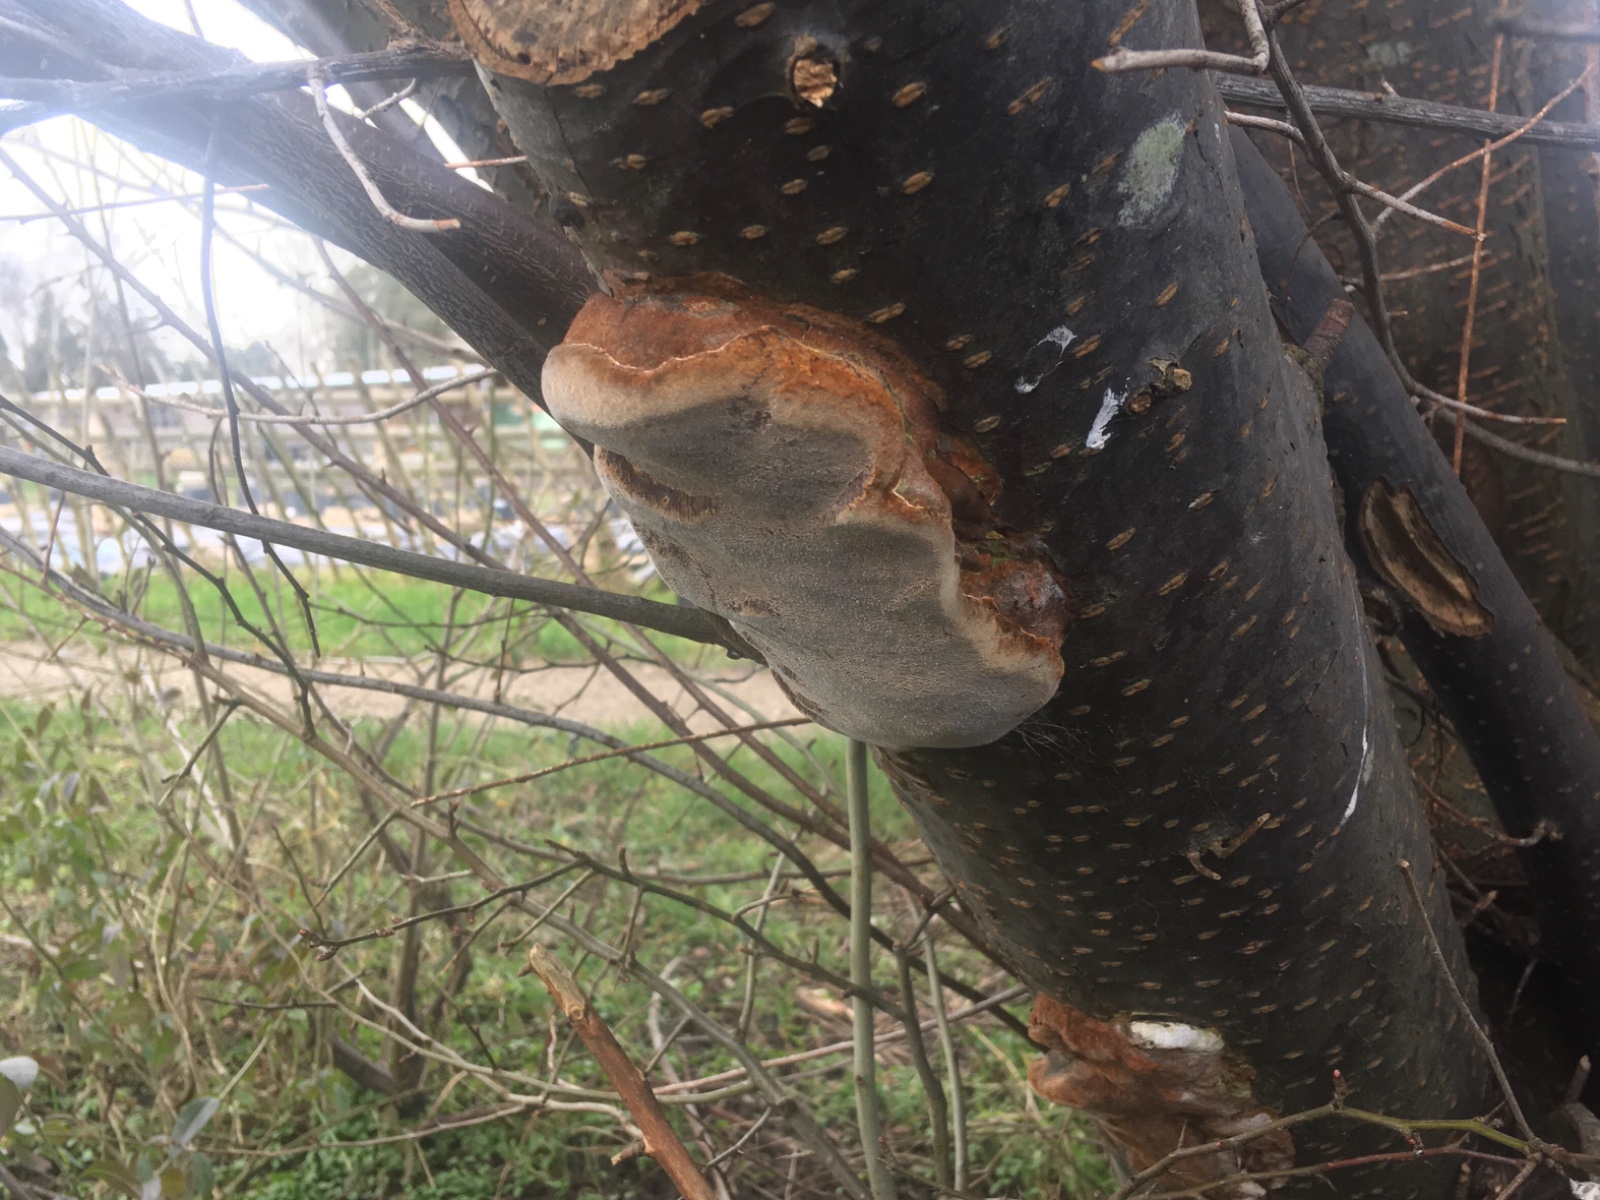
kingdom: Fungi
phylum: Basidiomycota
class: Agaricomycetes
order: Hymenochaetales
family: Hymenochaetaceae
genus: Phellinus
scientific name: Phellinus pomaceus
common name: blomme-ildporesvamp
